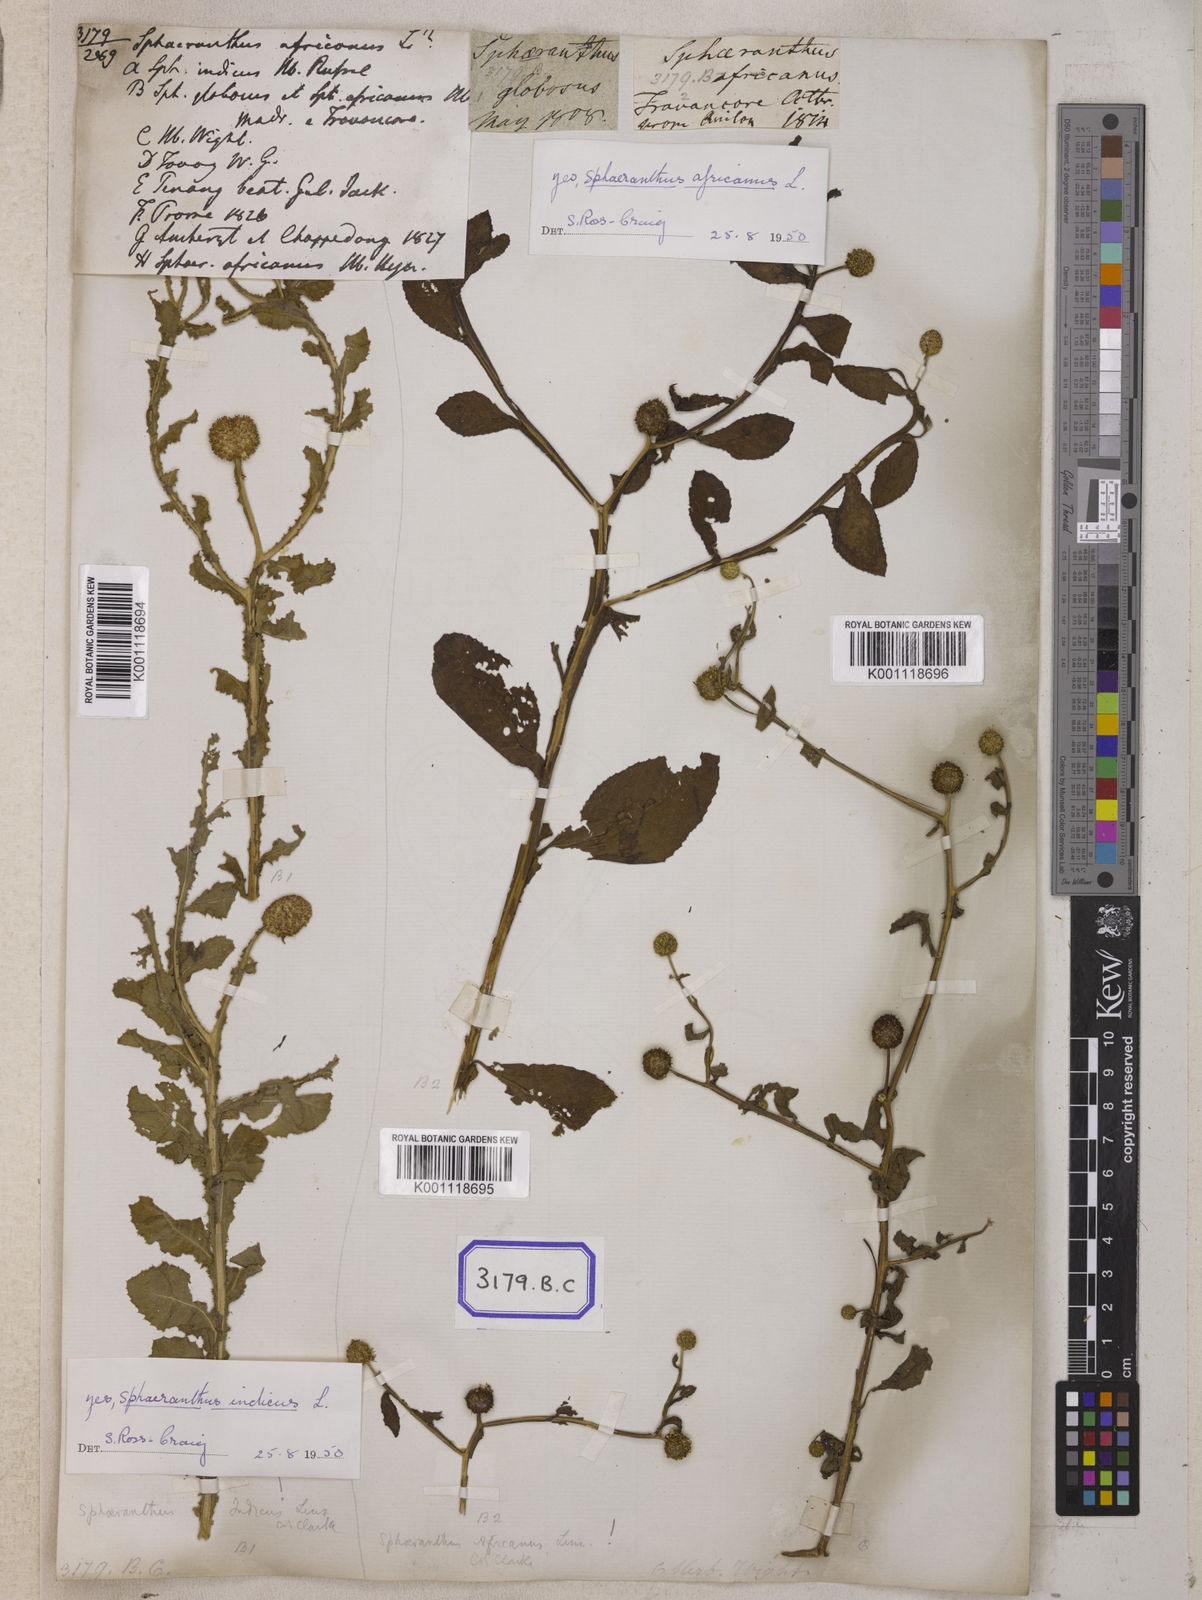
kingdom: Plantae
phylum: Tracheophyta
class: Magnoliopsida
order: Asterales
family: Asteraceae
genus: Sphaeranthus
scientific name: Sphaeranthus senegalensis
